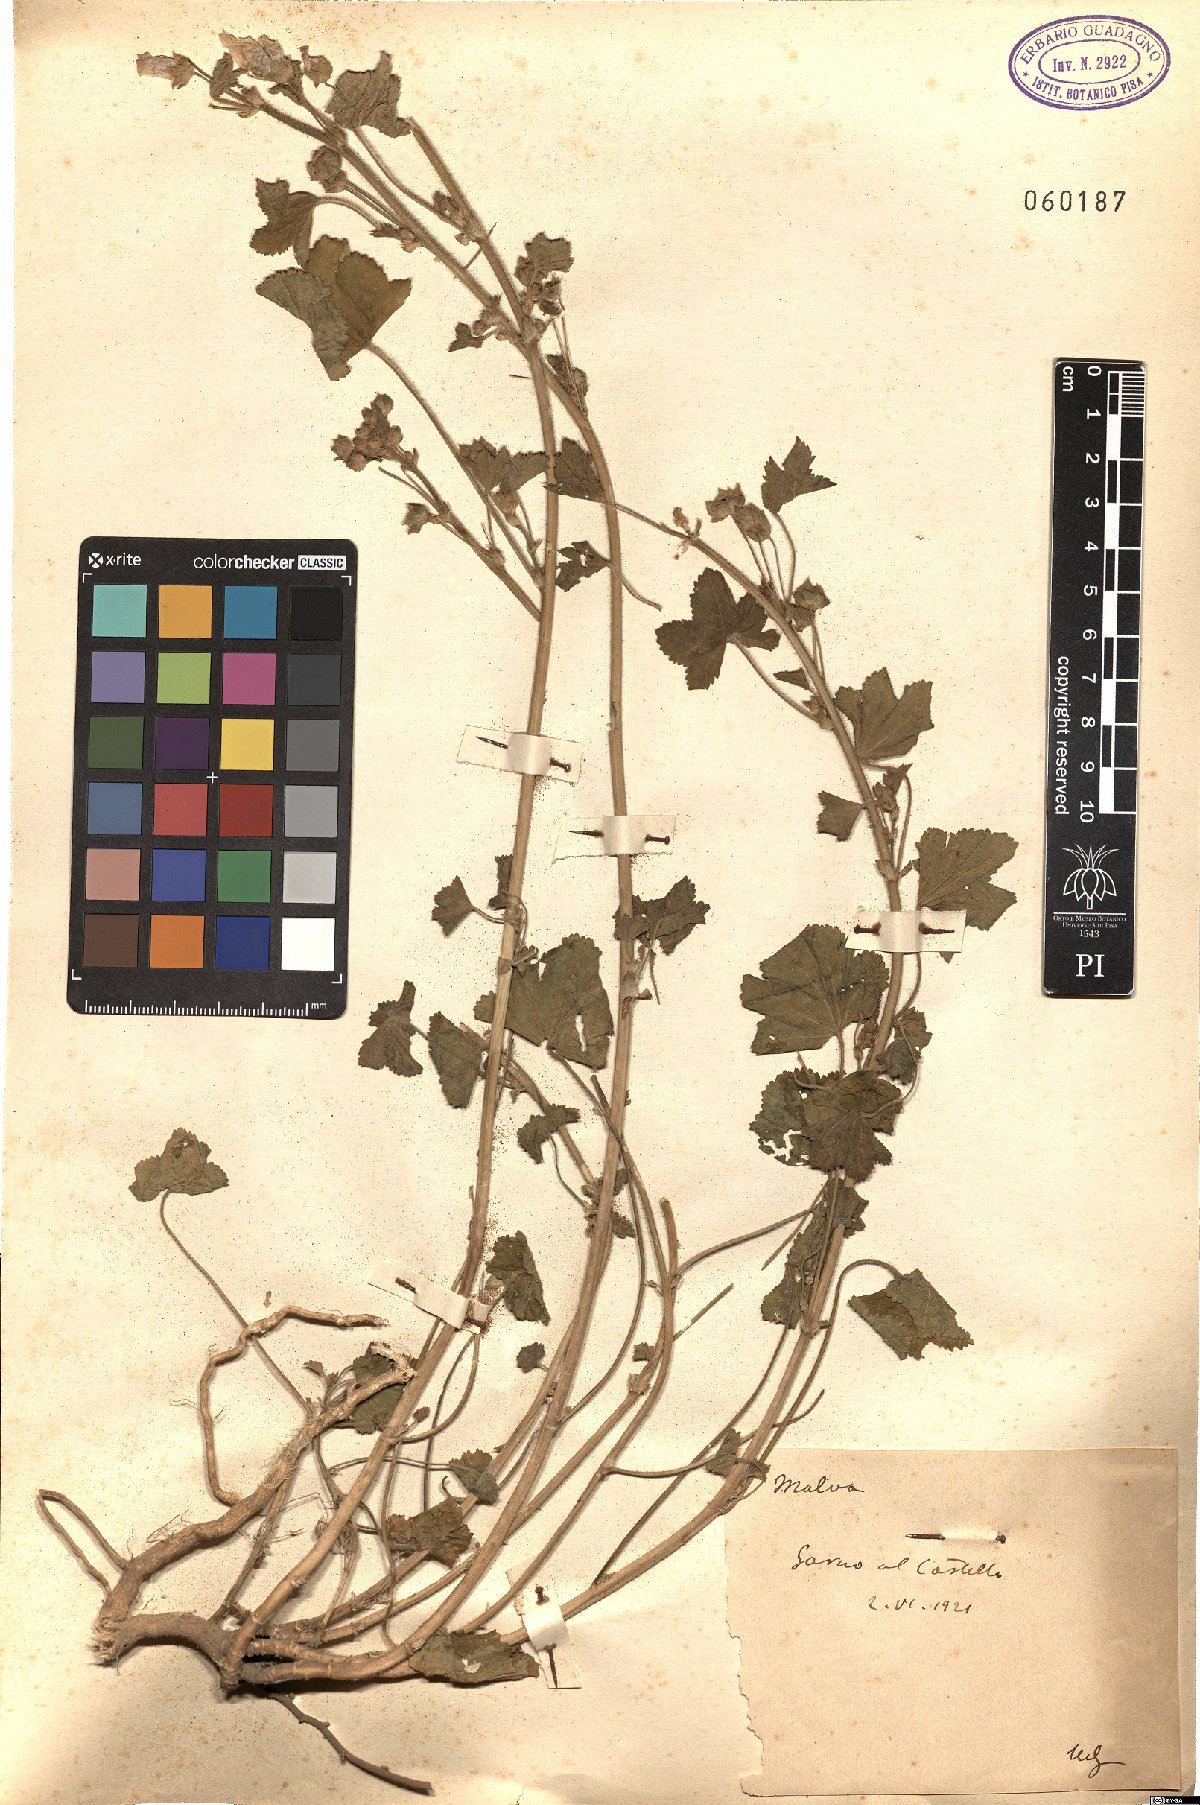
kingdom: Plantae
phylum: Tracheophyta
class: Magnoliopsida
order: Malvales
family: Malvaceae
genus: Malva
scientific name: Malva
